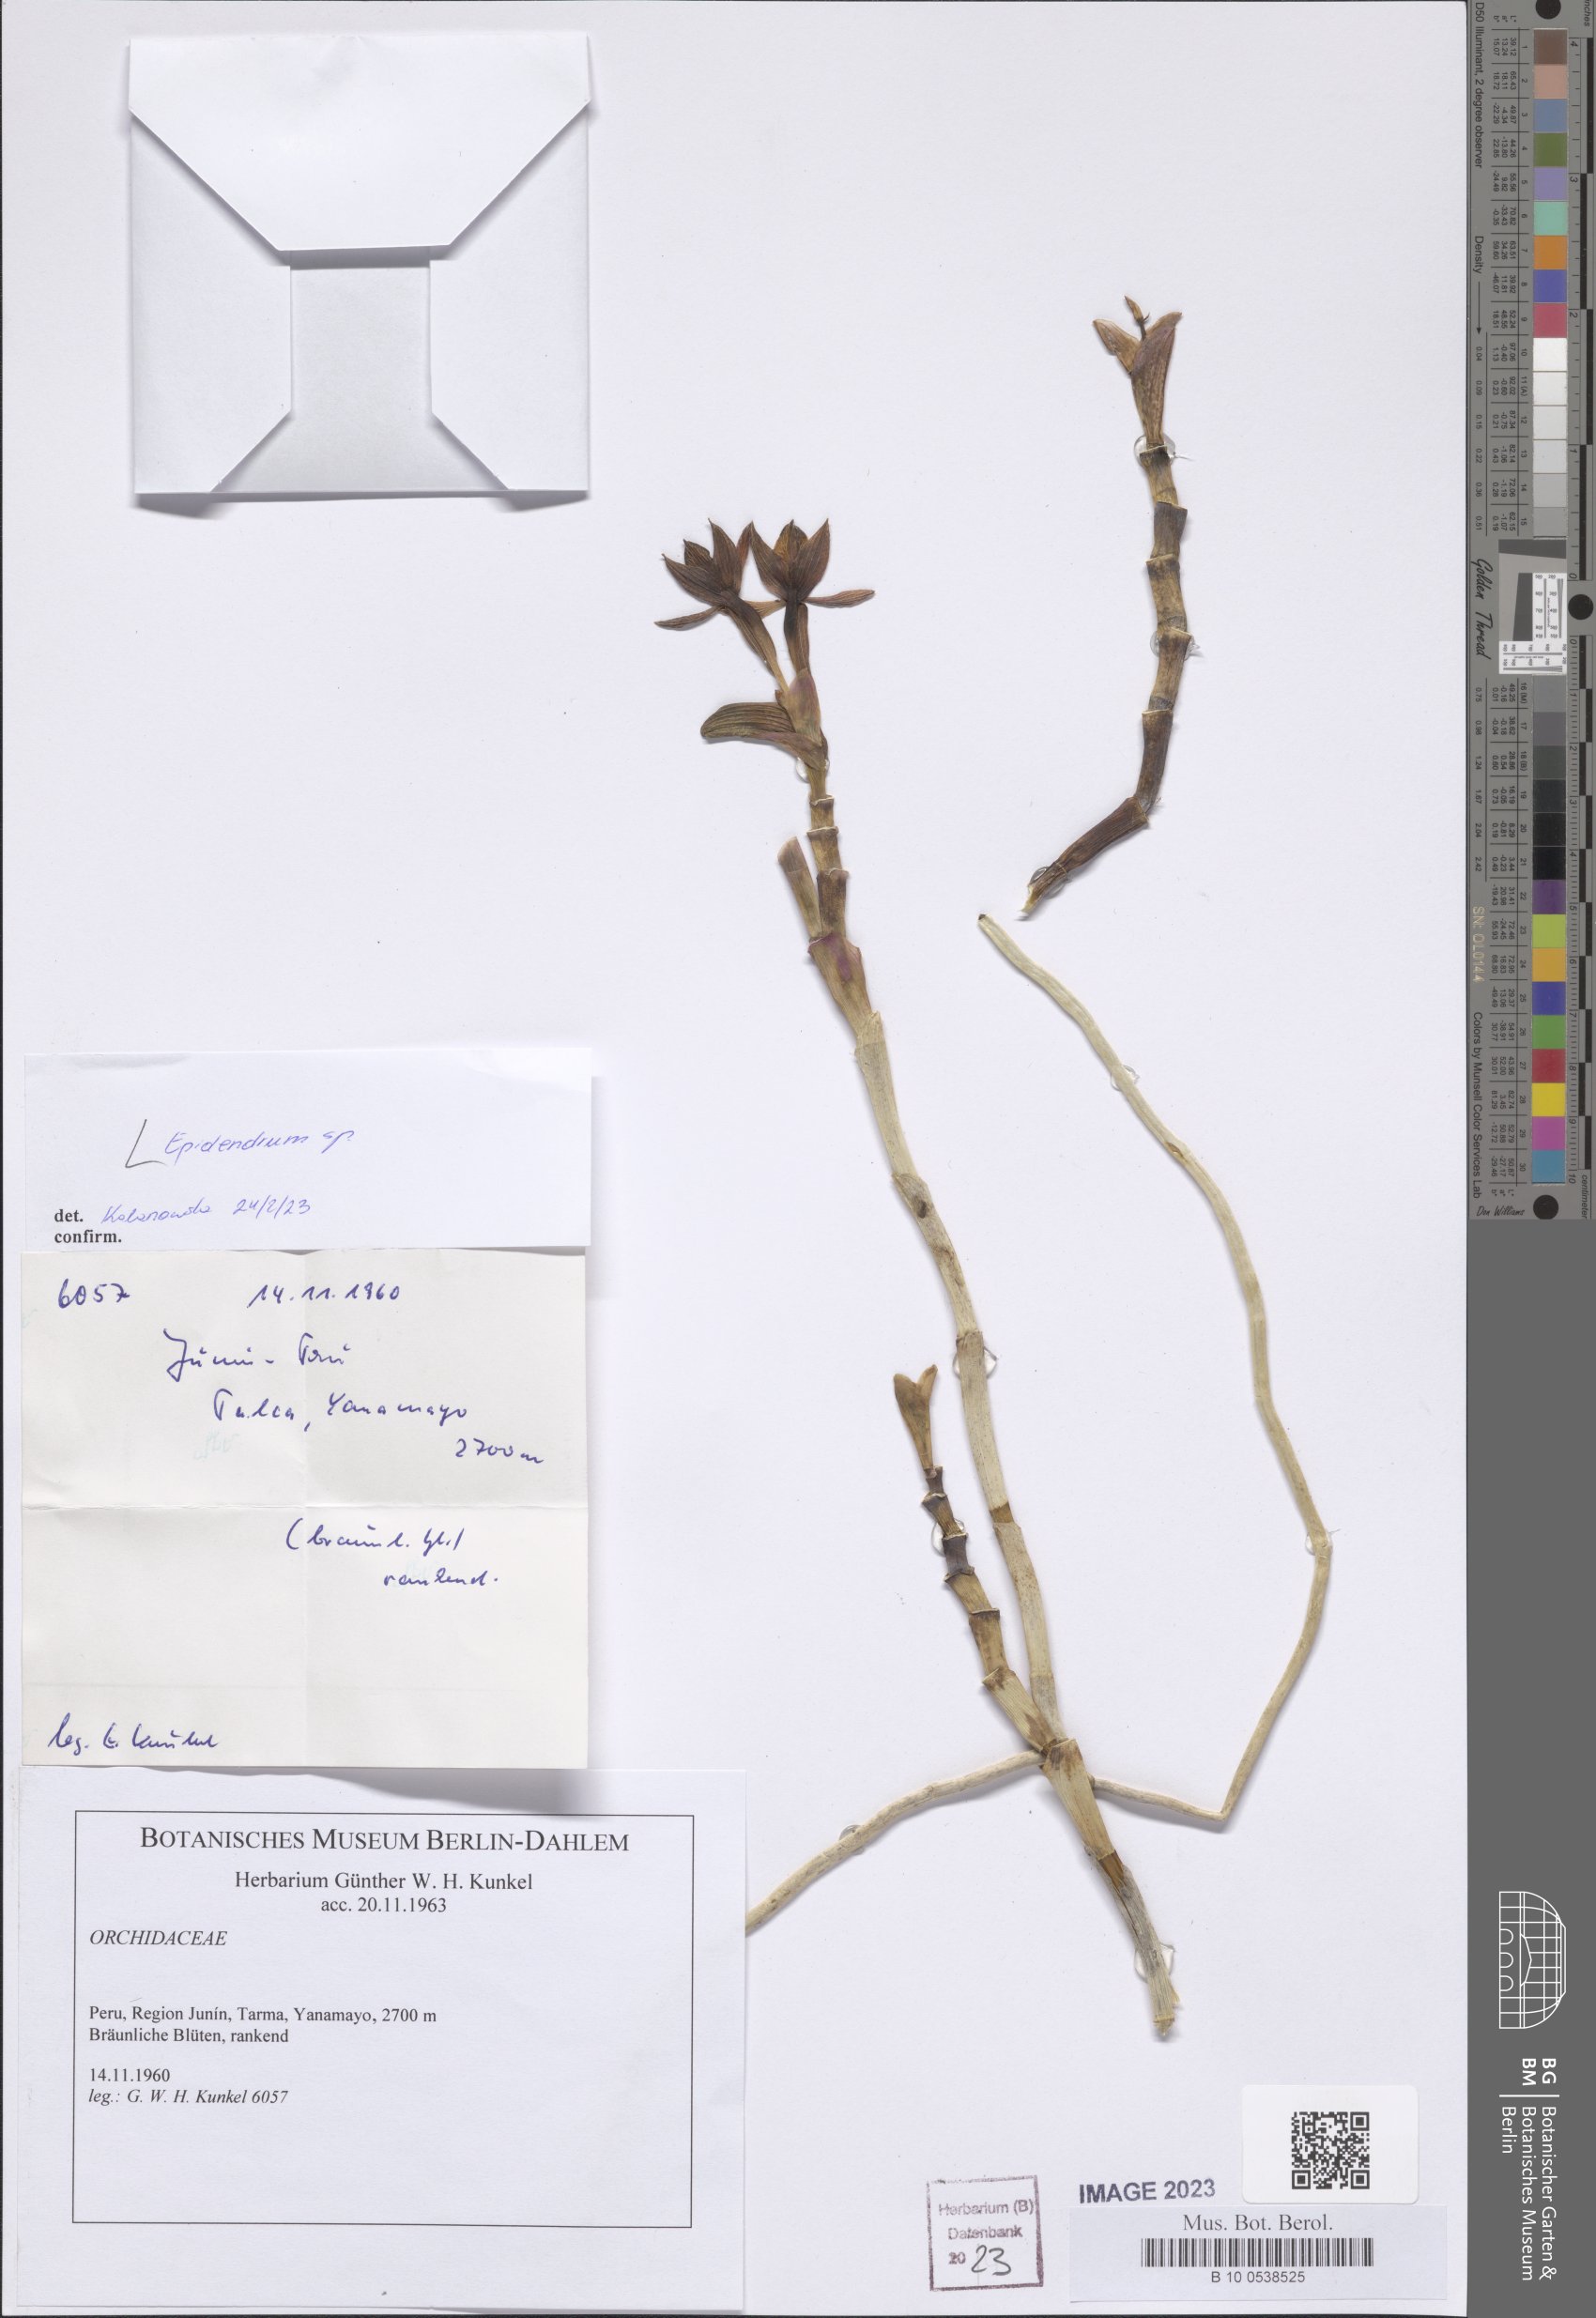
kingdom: Plantae
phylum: Tracheophyta
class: Liliopsida
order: Asparagales
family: Orchidaceae
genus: Epidendrum
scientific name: Epidendrum
